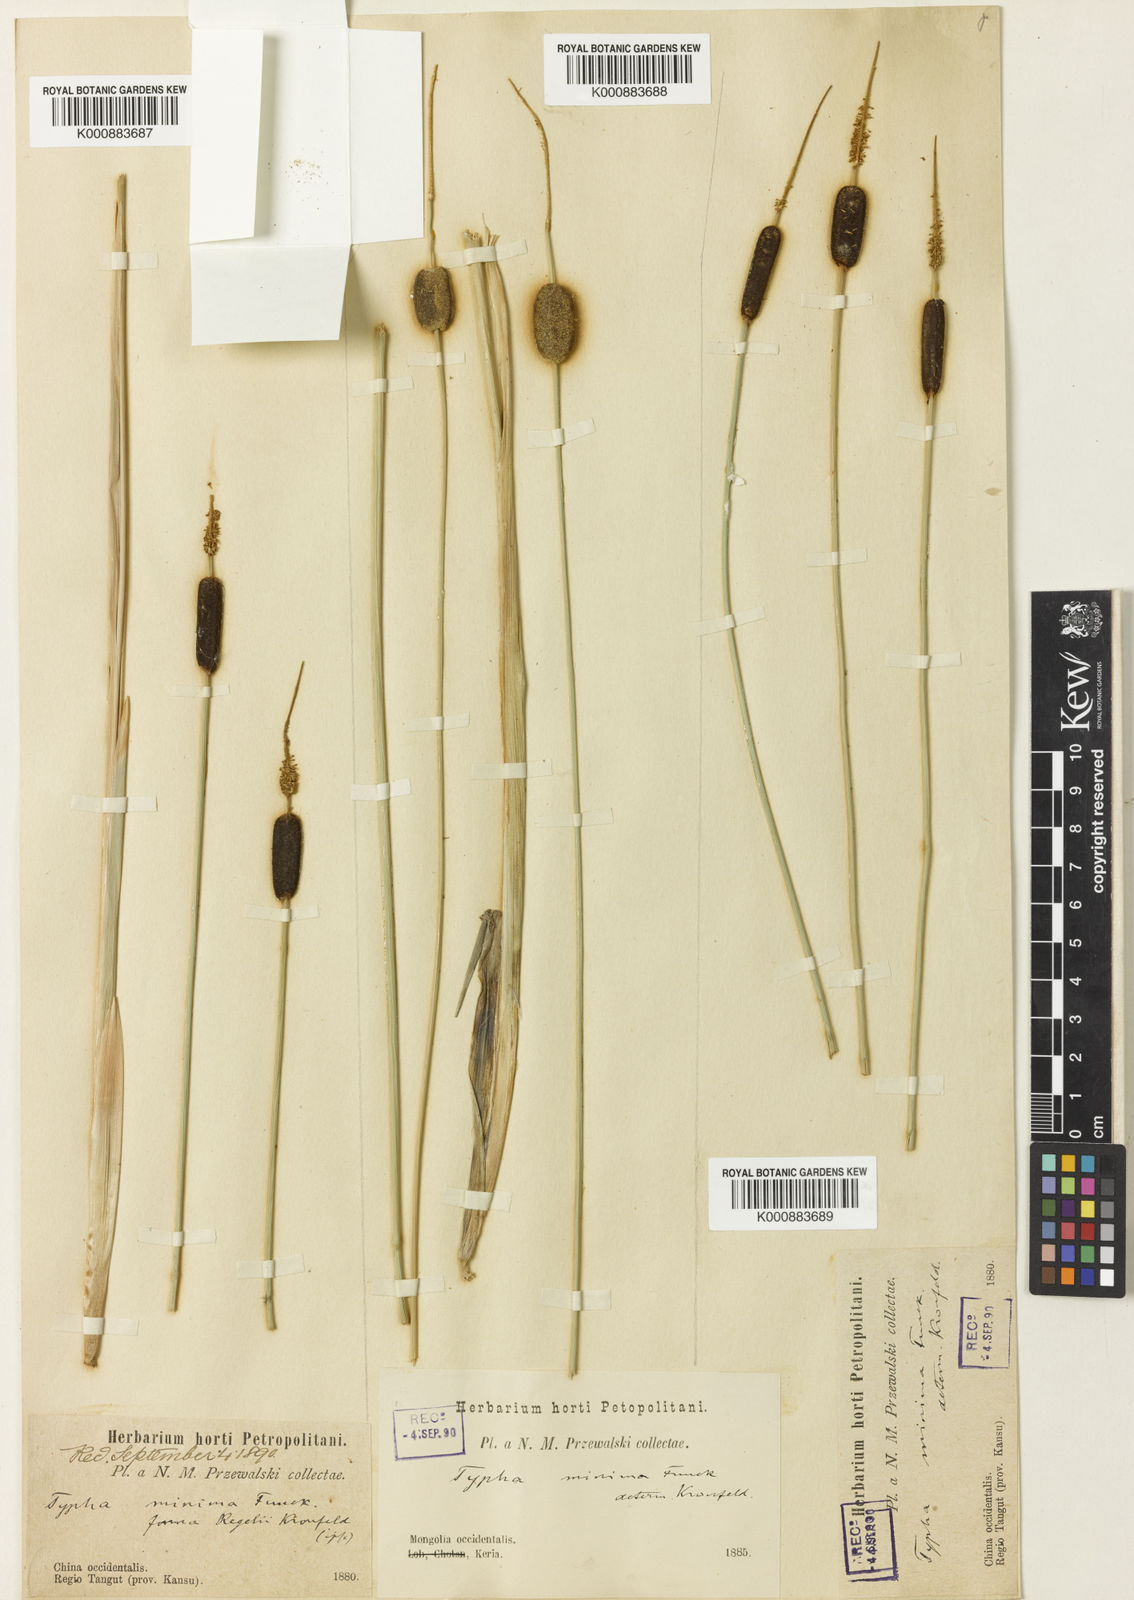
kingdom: Plantae
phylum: Tracheophyta
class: Liliopsida
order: Poales
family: Typhaceae
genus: Typha
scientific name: Typha
